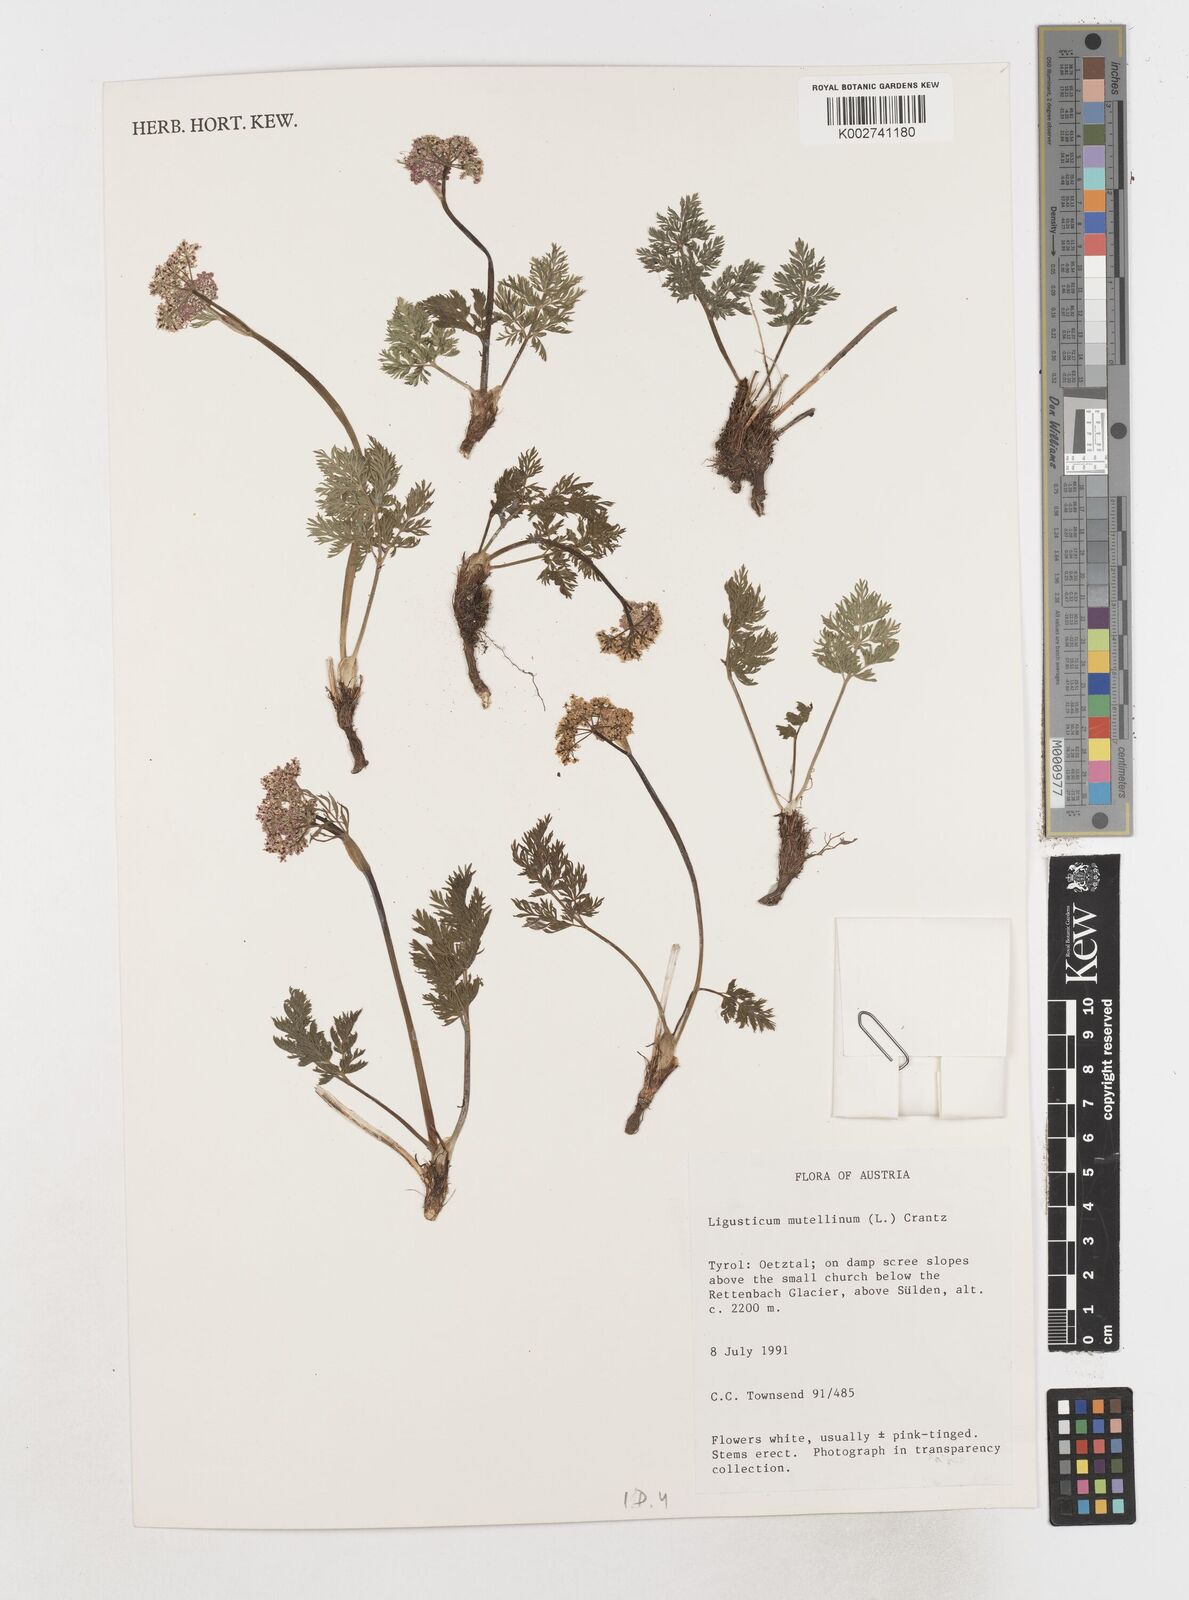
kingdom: Plantae
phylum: Tracheophyta
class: Magnoliopsida
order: Apiales
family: Apiaceae
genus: Pachypleurum
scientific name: Pachypleurum mutellinoides
